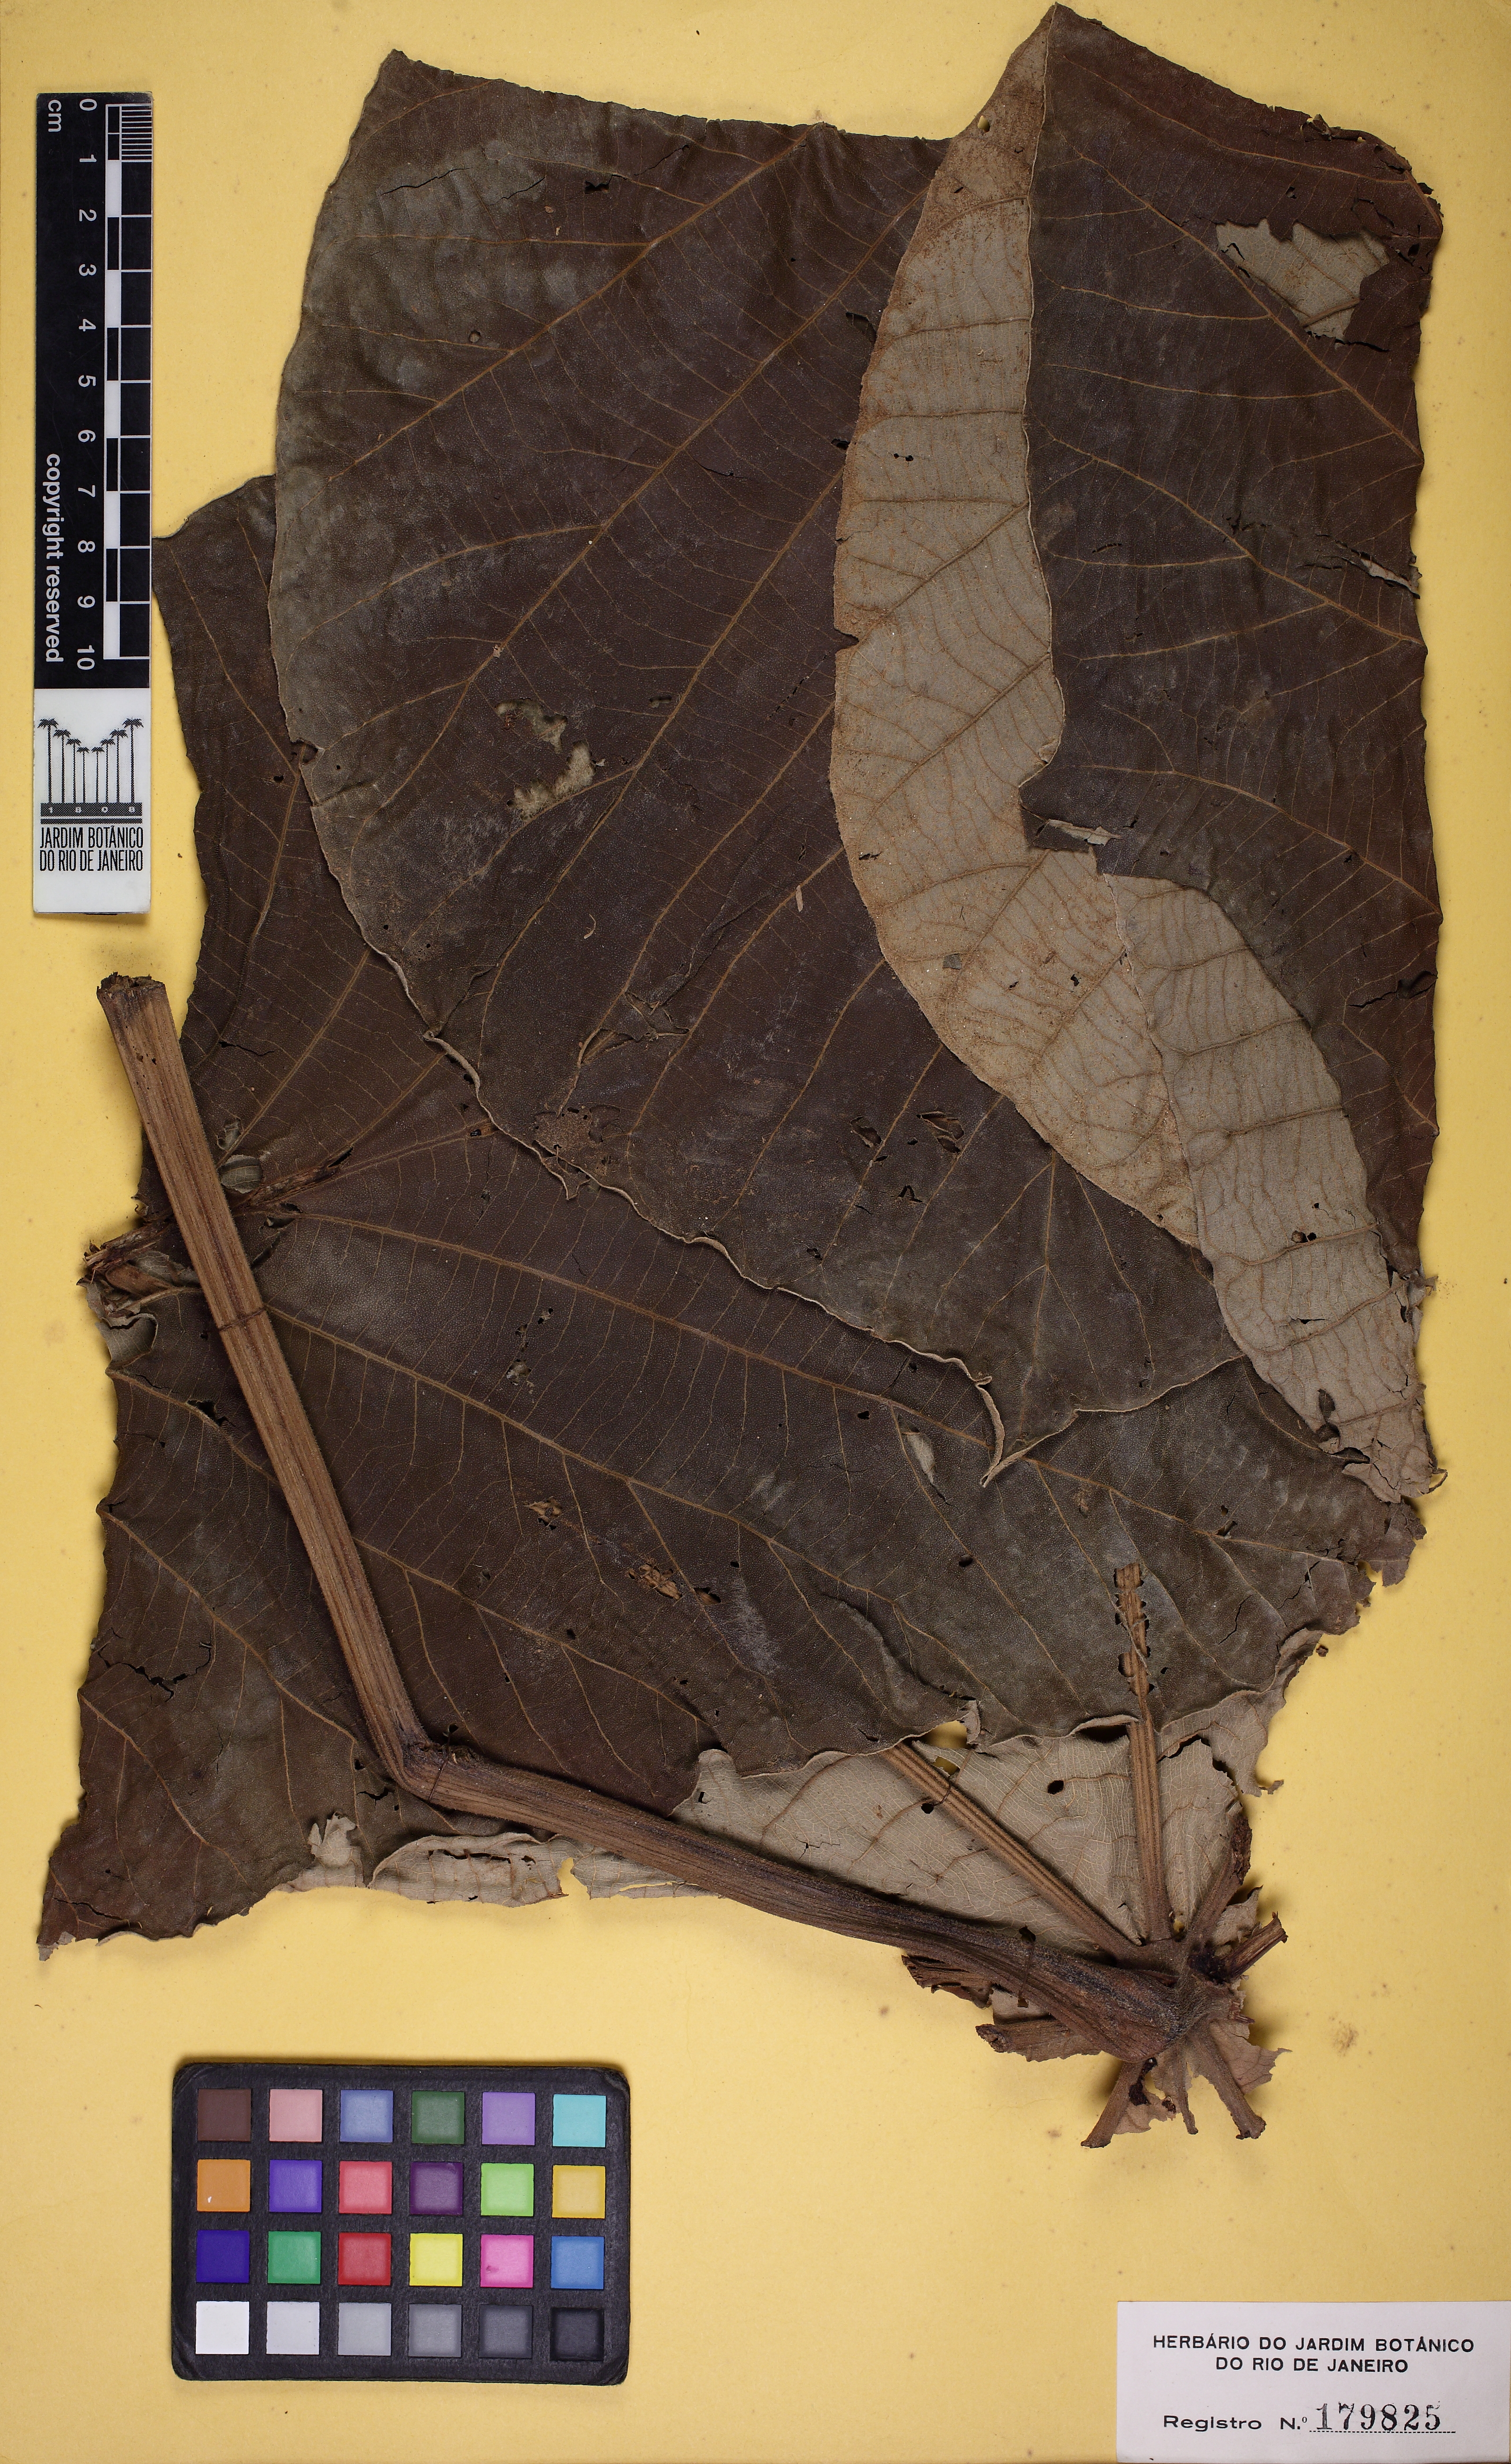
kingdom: Plantae
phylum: Tracheophyta
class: Magnoliopsida
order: Rosales
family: Urticaceae
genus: Cecropia
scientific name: Cecropia glaziovii
